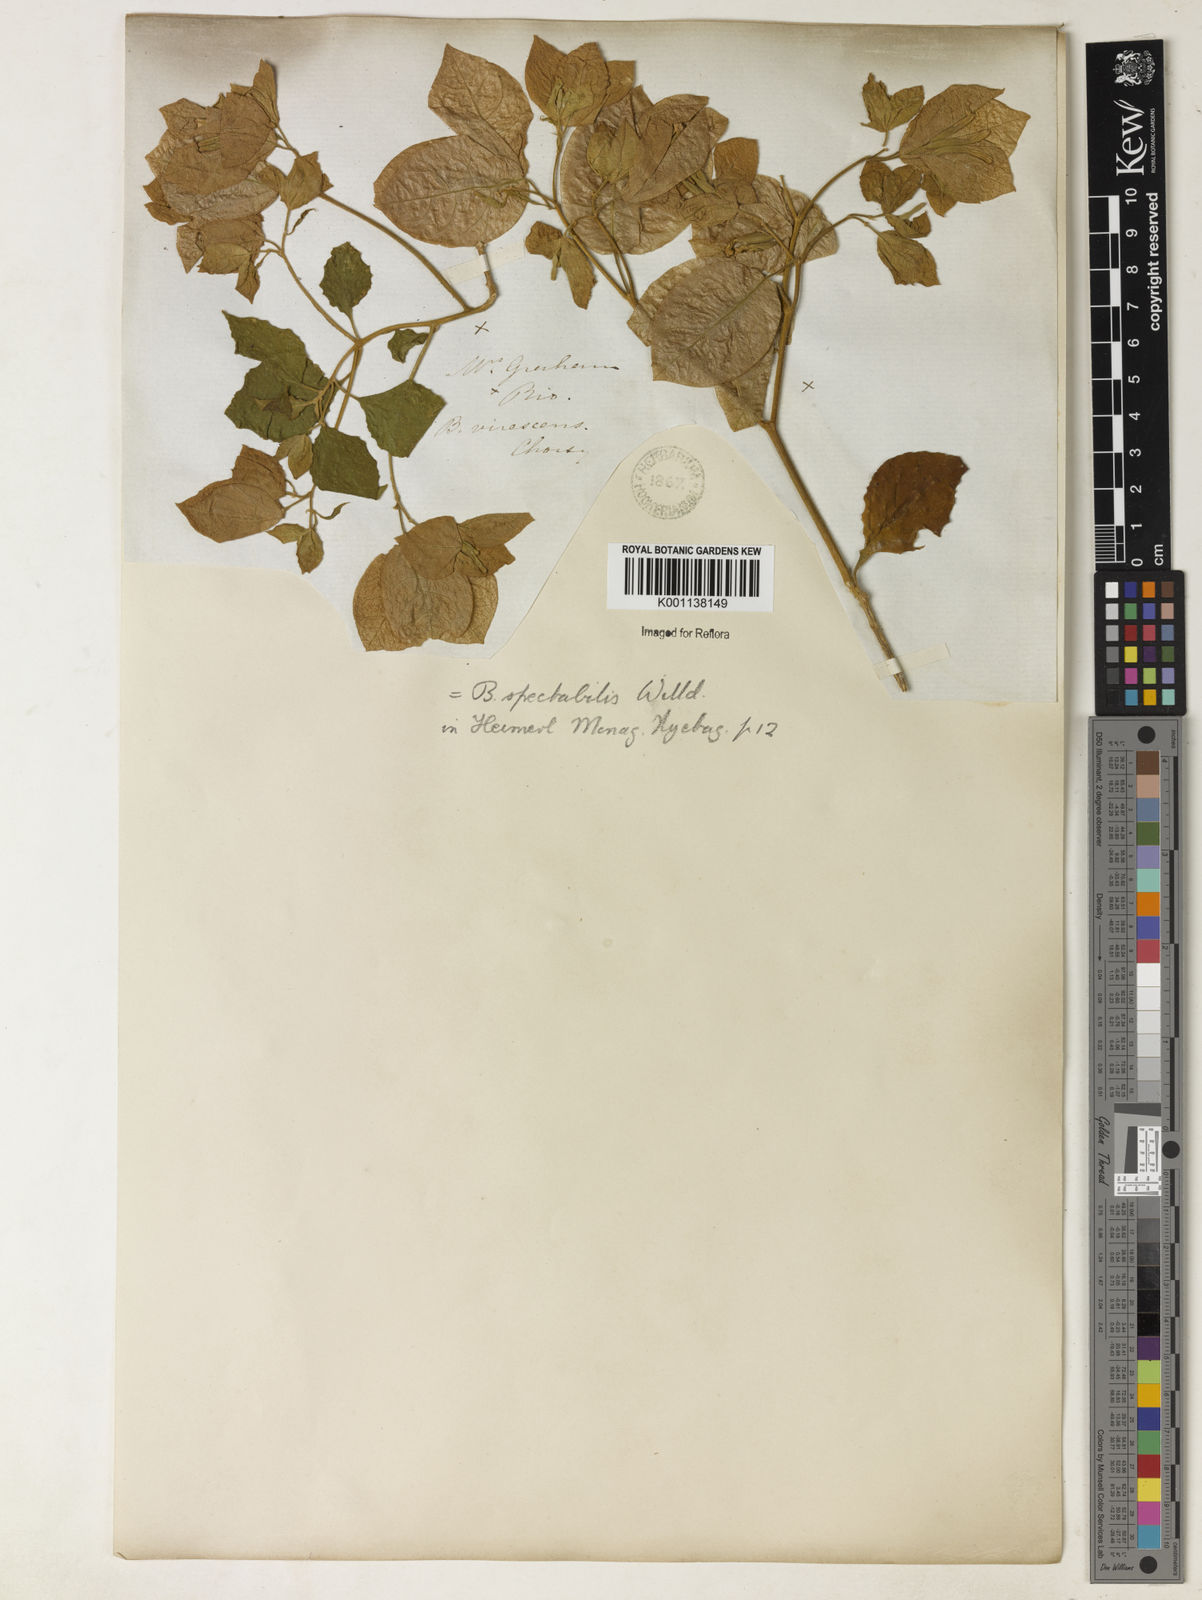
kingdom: Plantae
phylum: Tracheophyta
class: Magnoliopsida
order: Caryophyllales
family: Nyctaginaceae
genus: Bougainvillea
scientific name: Bougainvillea spectabilis
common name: Great bougainvillea
